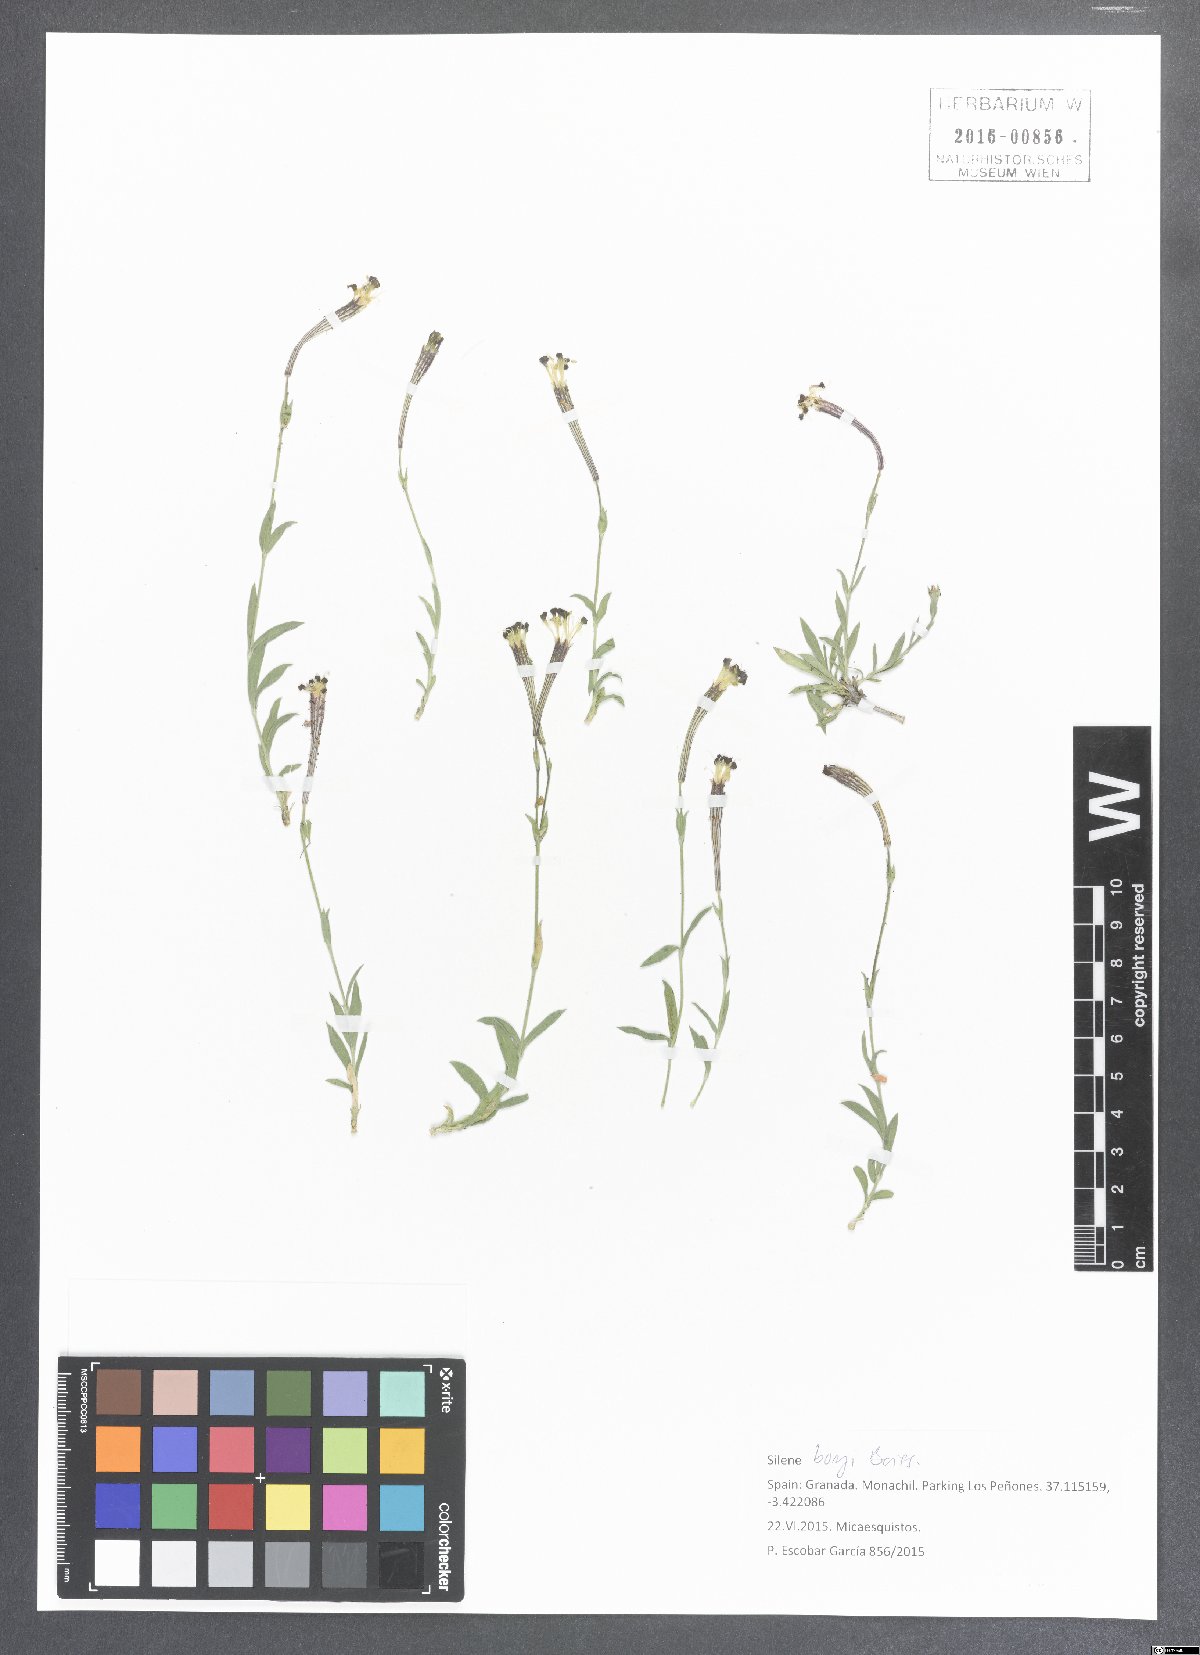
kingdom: Plantae
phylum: Tracheophyta
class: Magnoliopsida
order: Caryophyllales
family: Caryophyllaceae
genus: Silene
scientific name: Silene boryi
